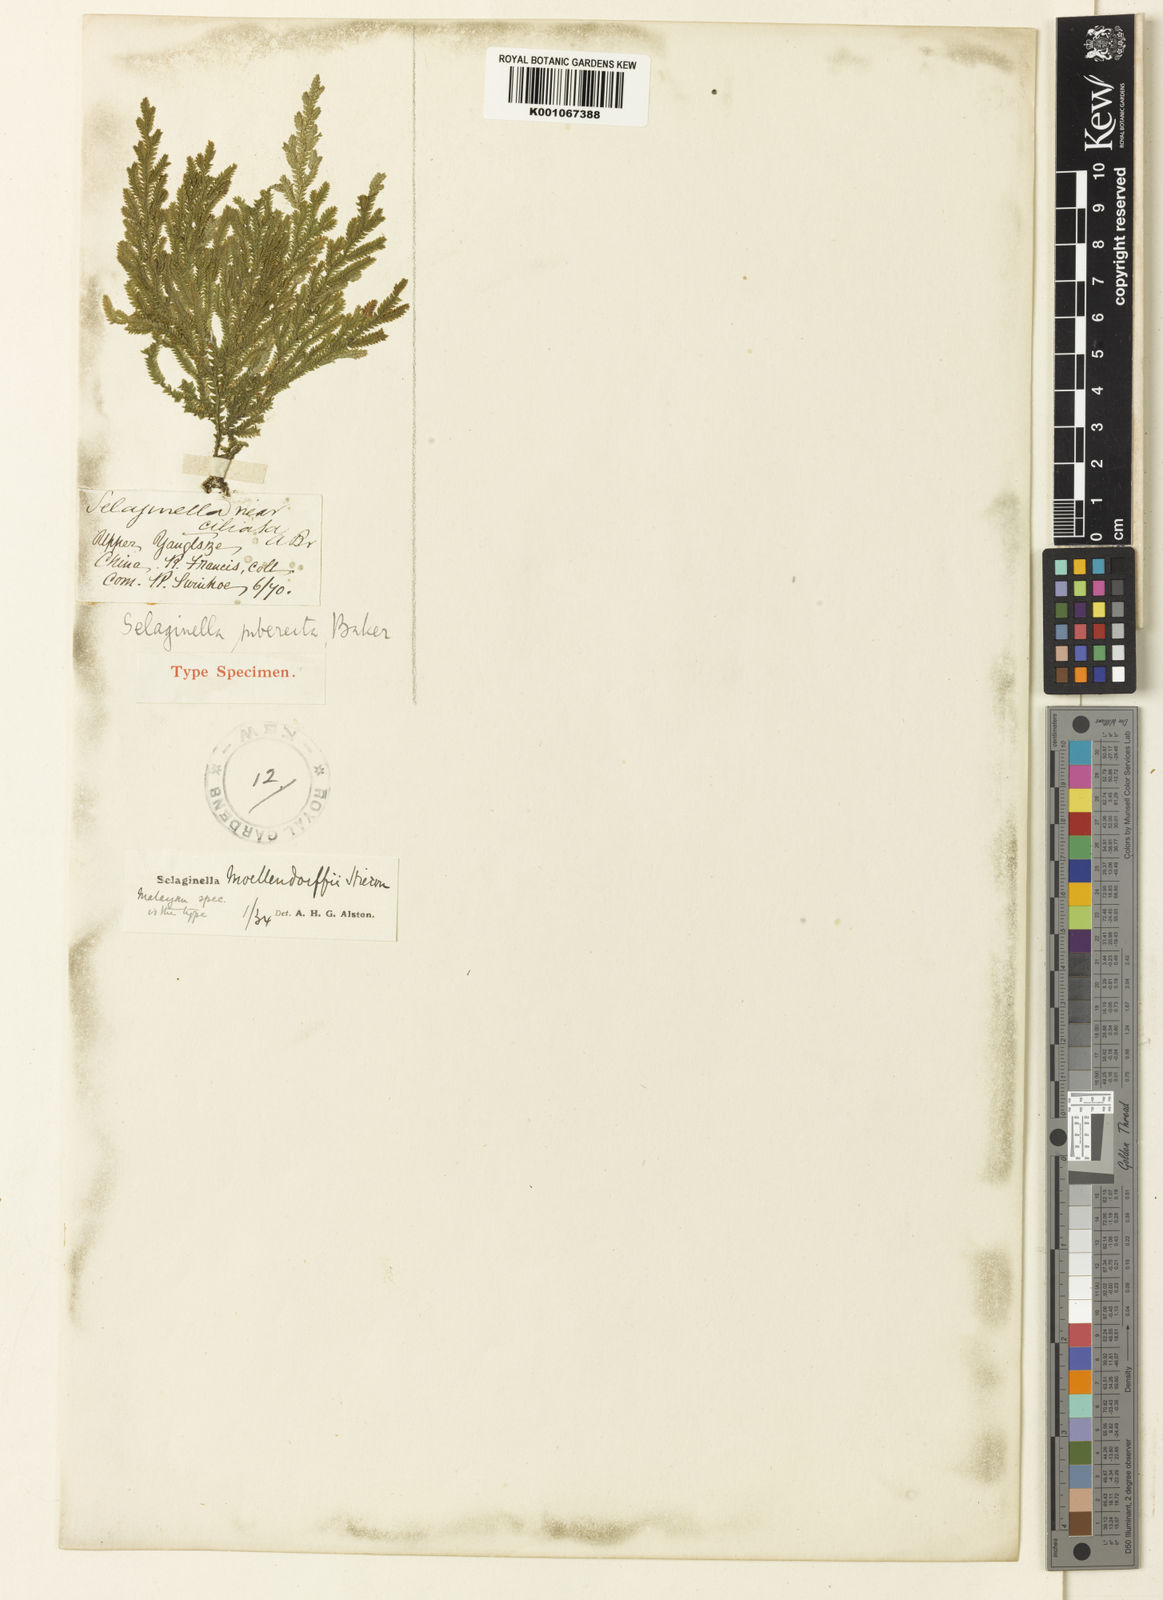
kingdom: Plantae
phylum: Tracheophyta
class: Lycopodiopsida
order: Selaginellales
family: Selaginellaceae
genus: Selaginella
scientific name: Selaginella moellendorffii
